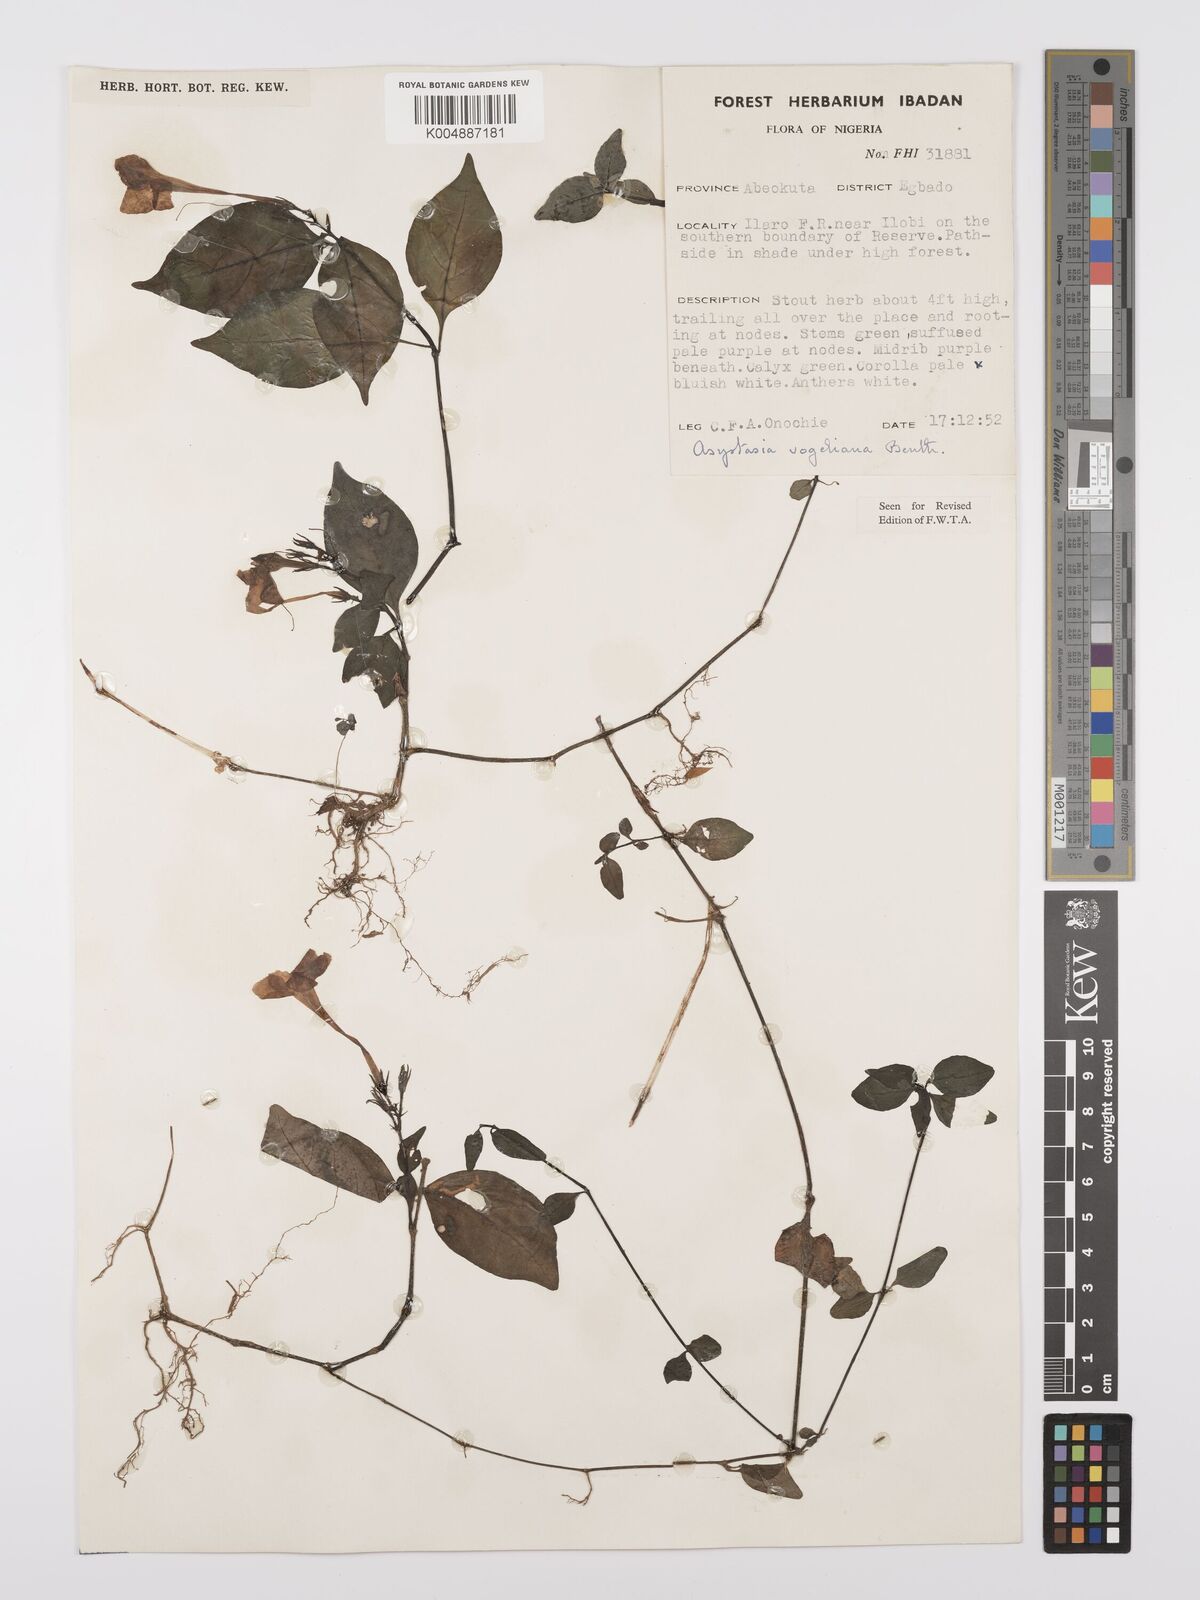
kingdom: Plantae
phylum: Tracheophyta
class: Magnoliopsida
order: Lamiales
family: Acanthaceae
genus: Asystasia
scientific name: Asystasia vogeliana
